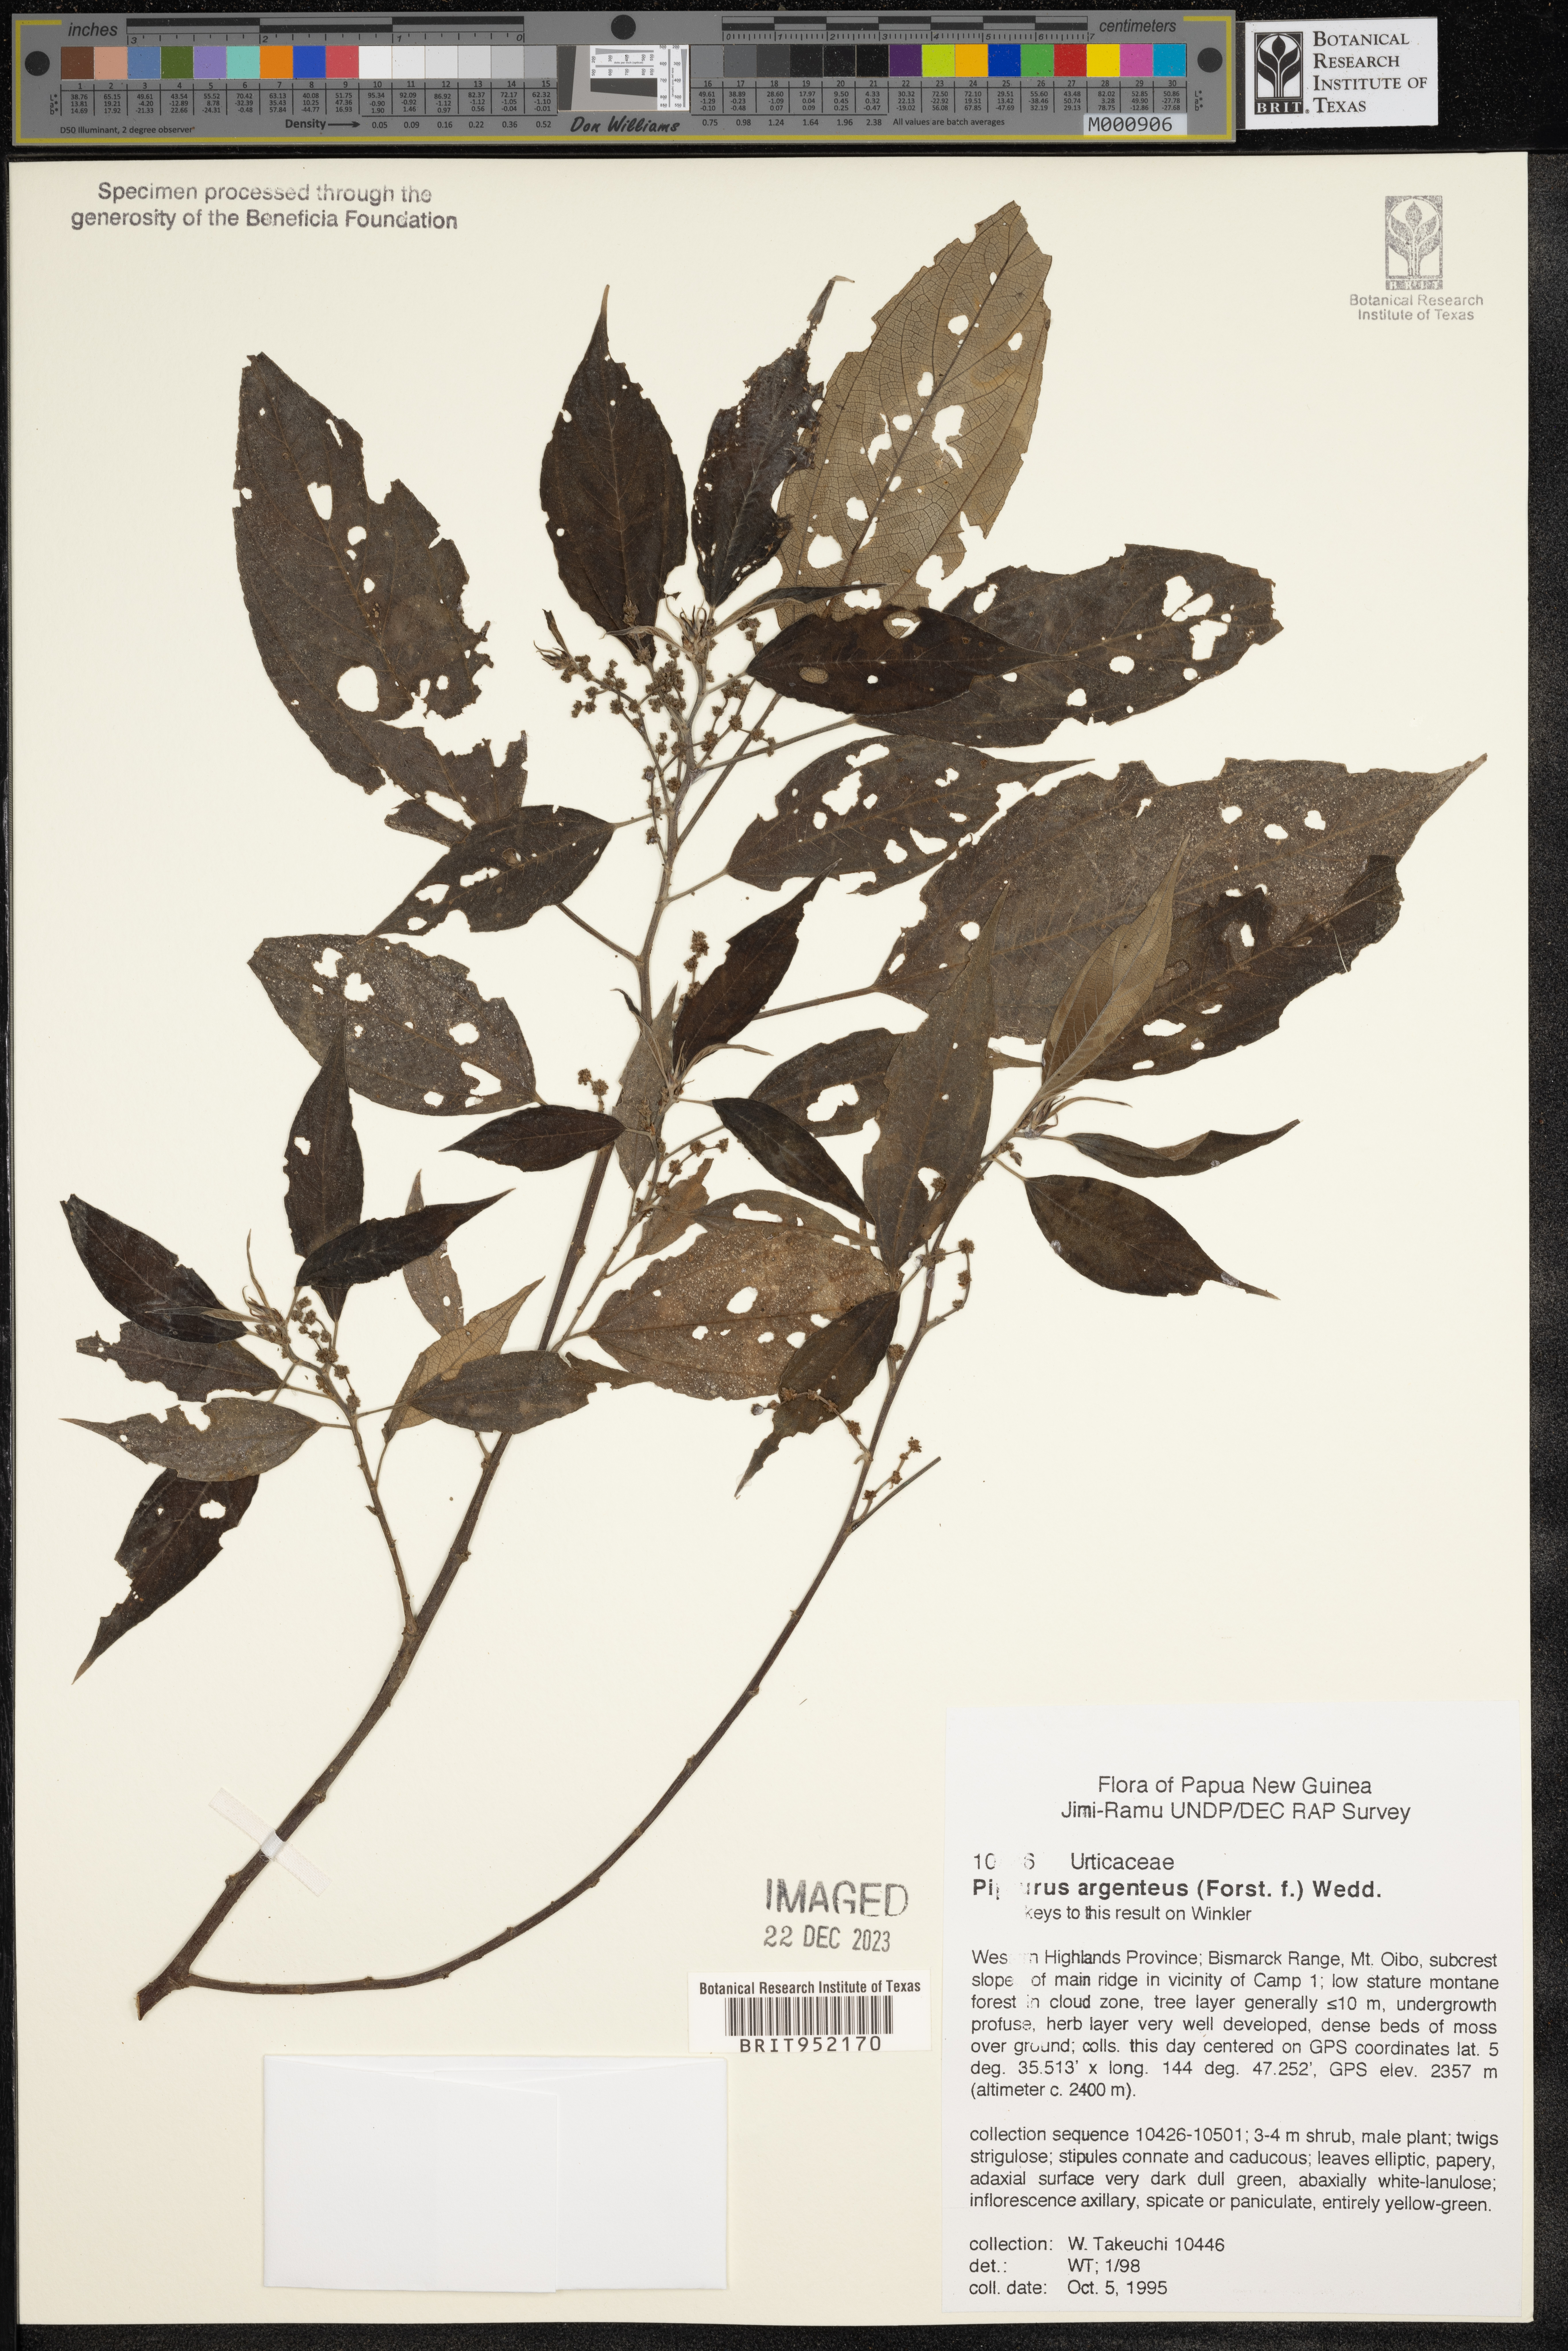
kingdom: Plantae
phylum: Tracheophyta
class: Magnoliopsida
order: Rosales
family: Urticaceae
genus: Pipturus
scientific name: Pipturus argenteus
